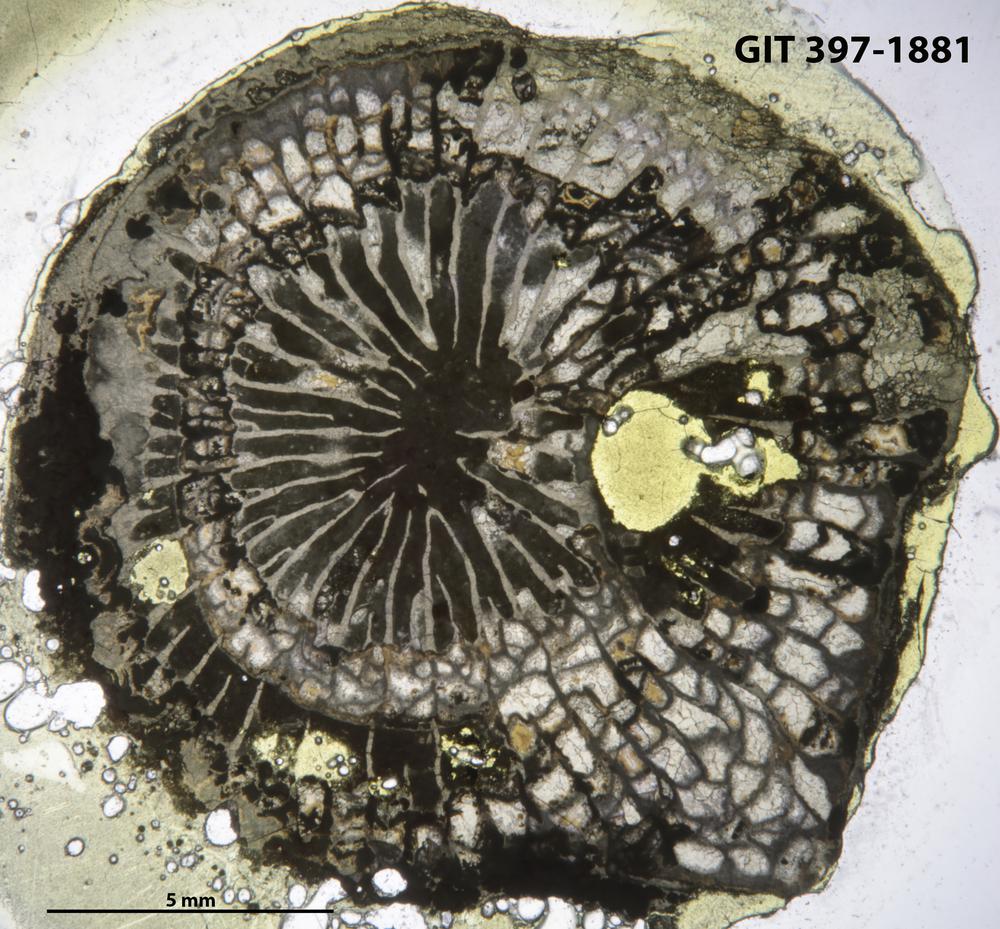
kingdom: Animalia
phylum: Cnidaria
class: Anthozoa
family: Paliphyllidae
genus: Paliphyllum
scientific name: Paliphyllum soshkinae
